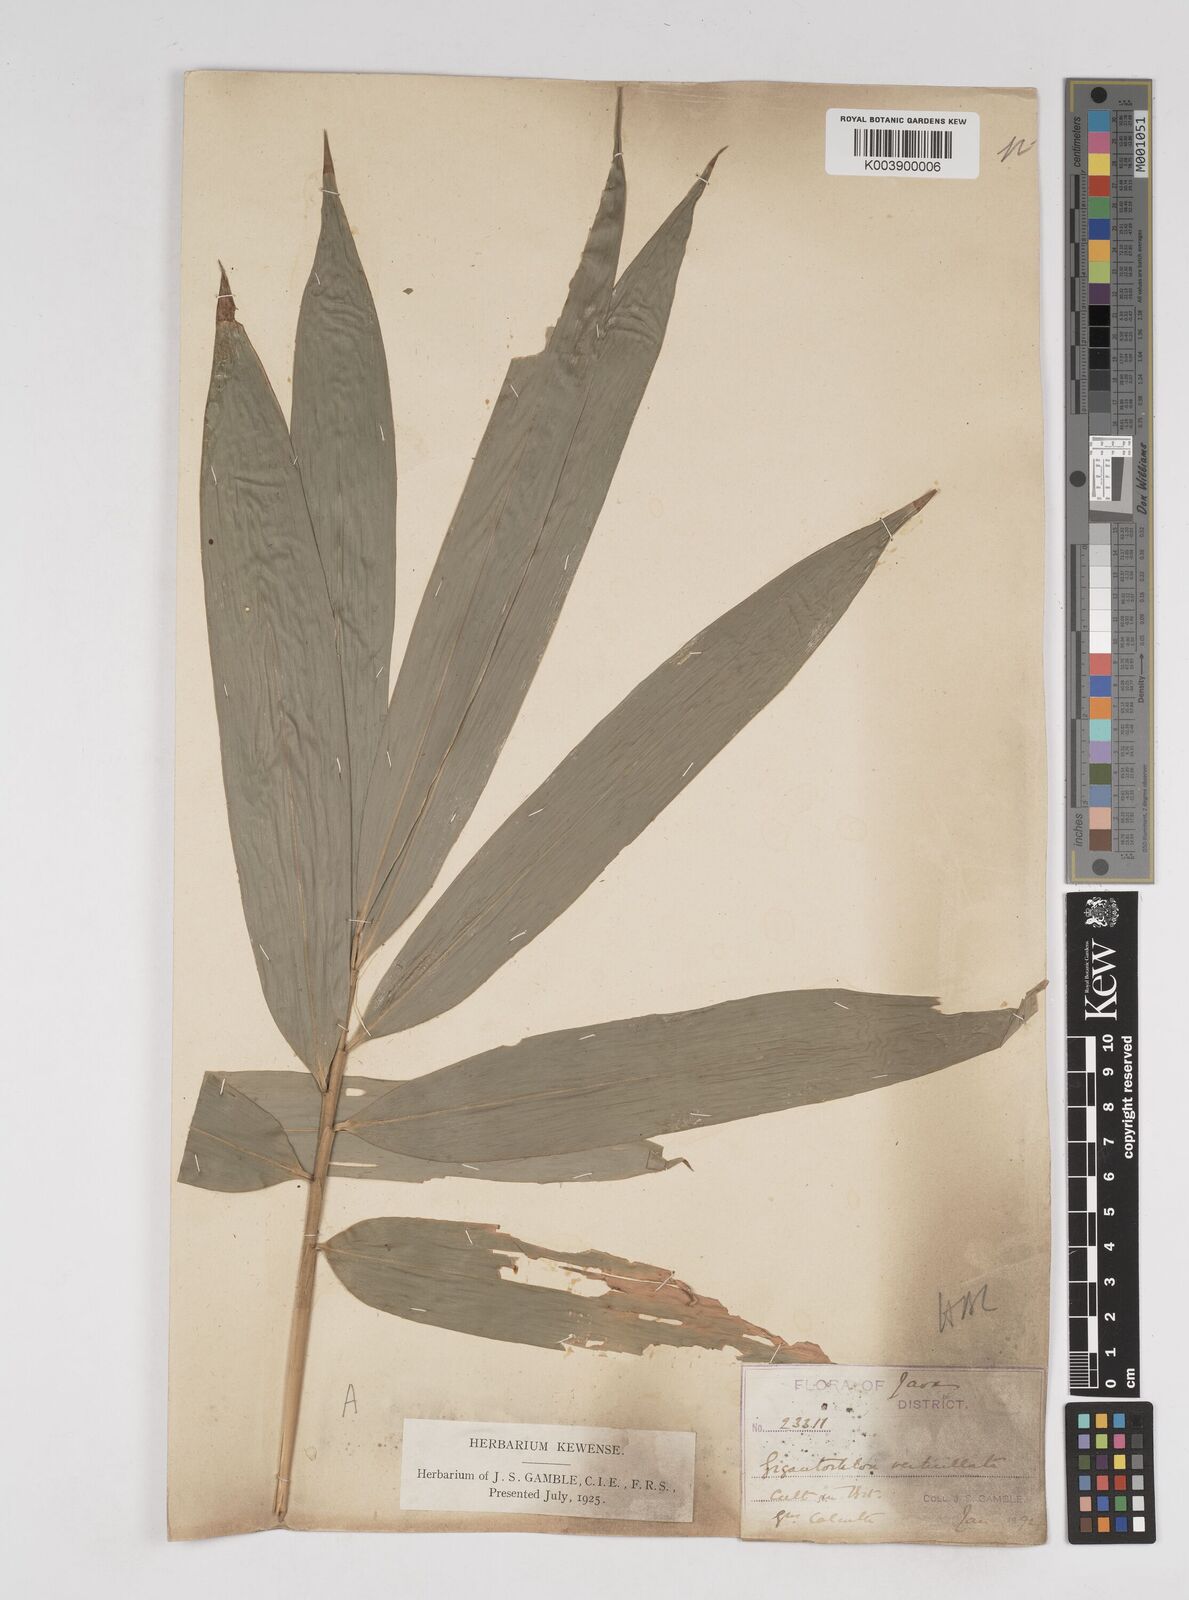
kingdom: Plantae
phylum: Tracheophyta
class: Liliopsida
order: Poales
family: Poaceae
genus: Gigantochloa
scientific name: Gigantochloa verticillata
